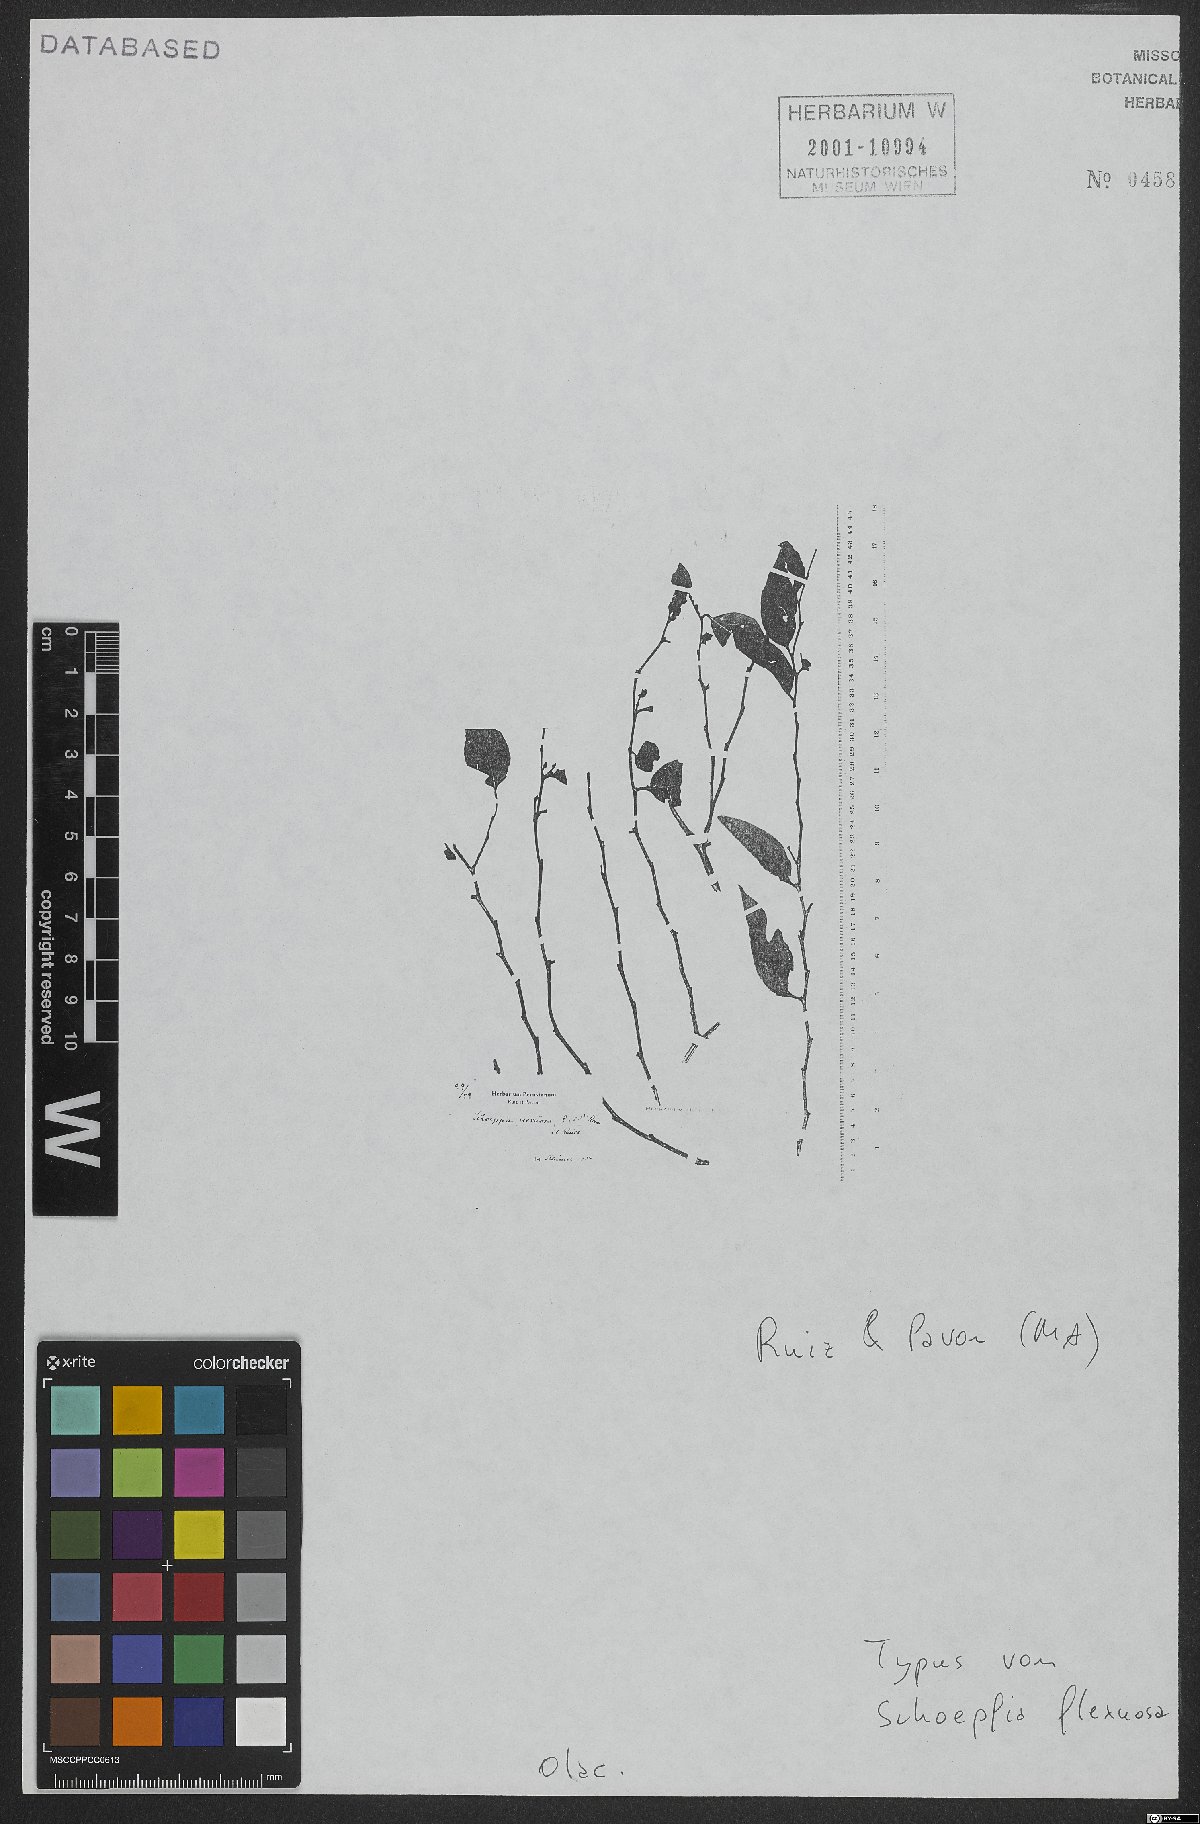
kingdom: Plantae
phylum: Tracheophyta
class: Magnoliopsida
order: Santalales
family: Schoepfiaceae
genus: Schoepfia
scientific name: Schoepfia flexuosa
